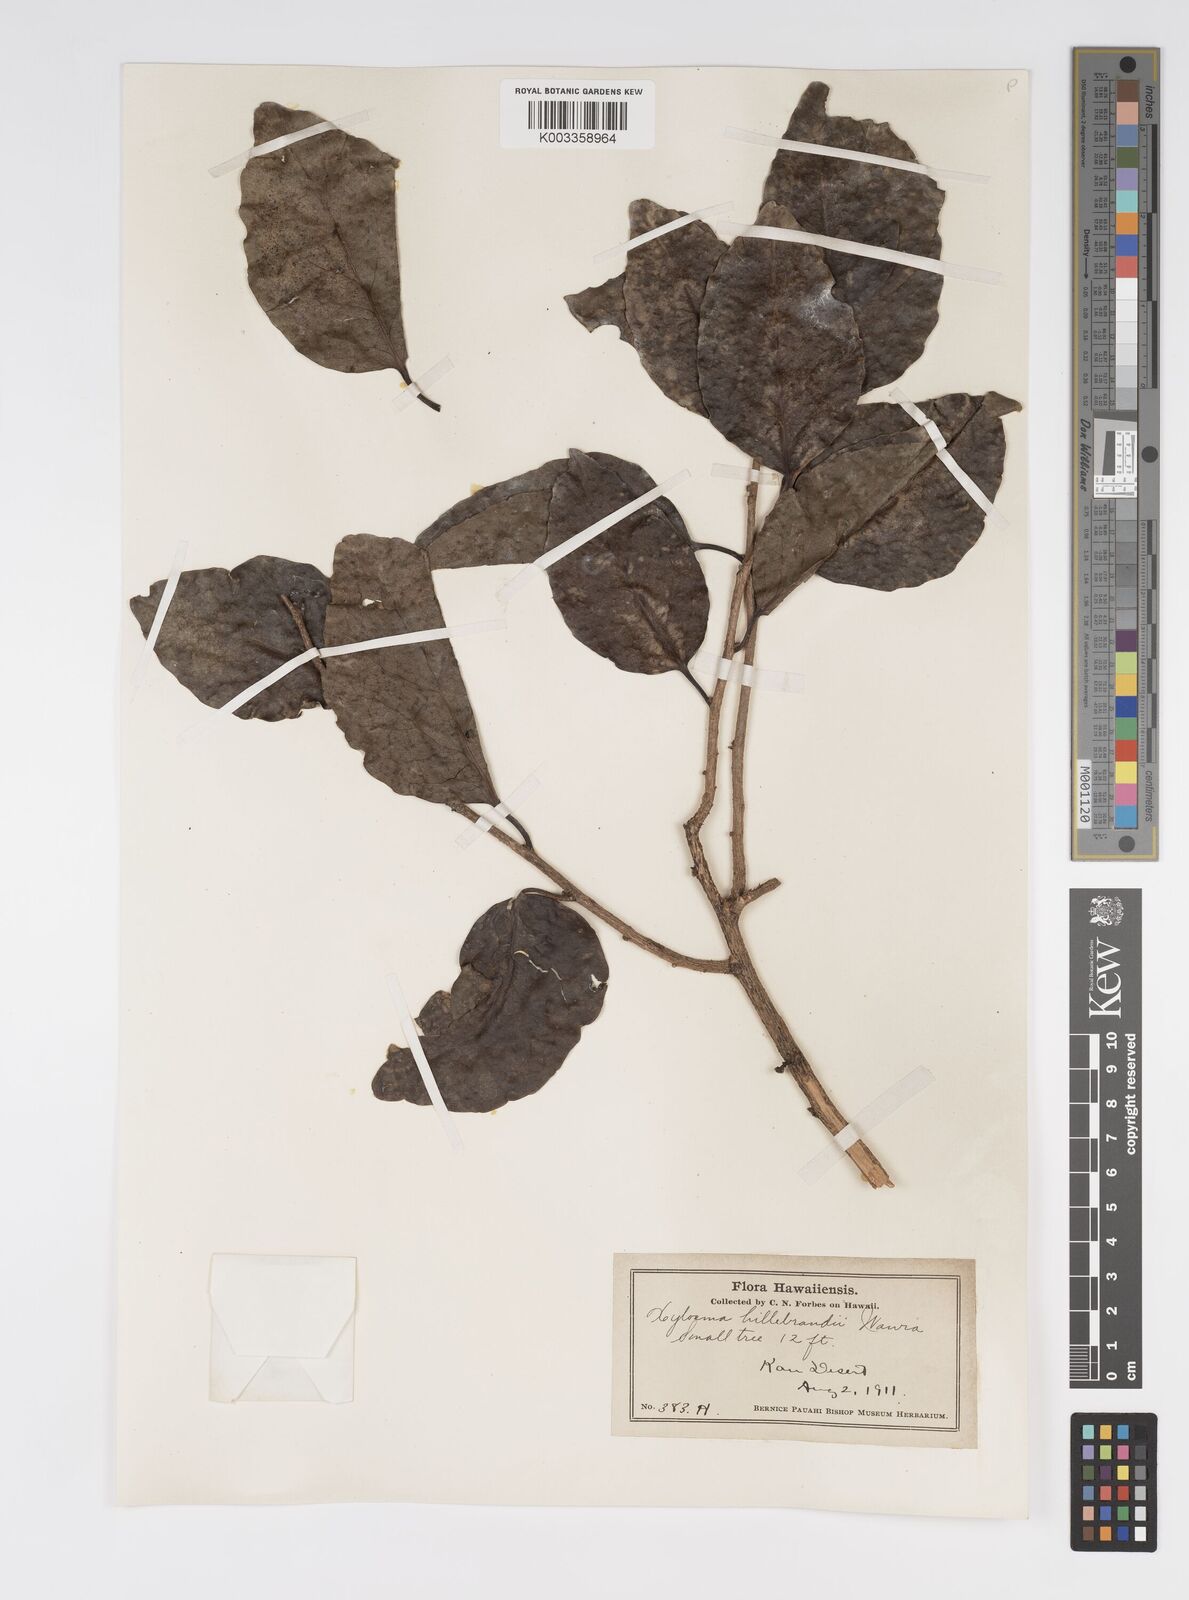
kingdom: Plantae
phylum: Tracheophyta
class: Magnoliopsida
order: Malpighiales
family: Salicaceae
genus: Xylosma
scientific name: Xylosma hawaiense
